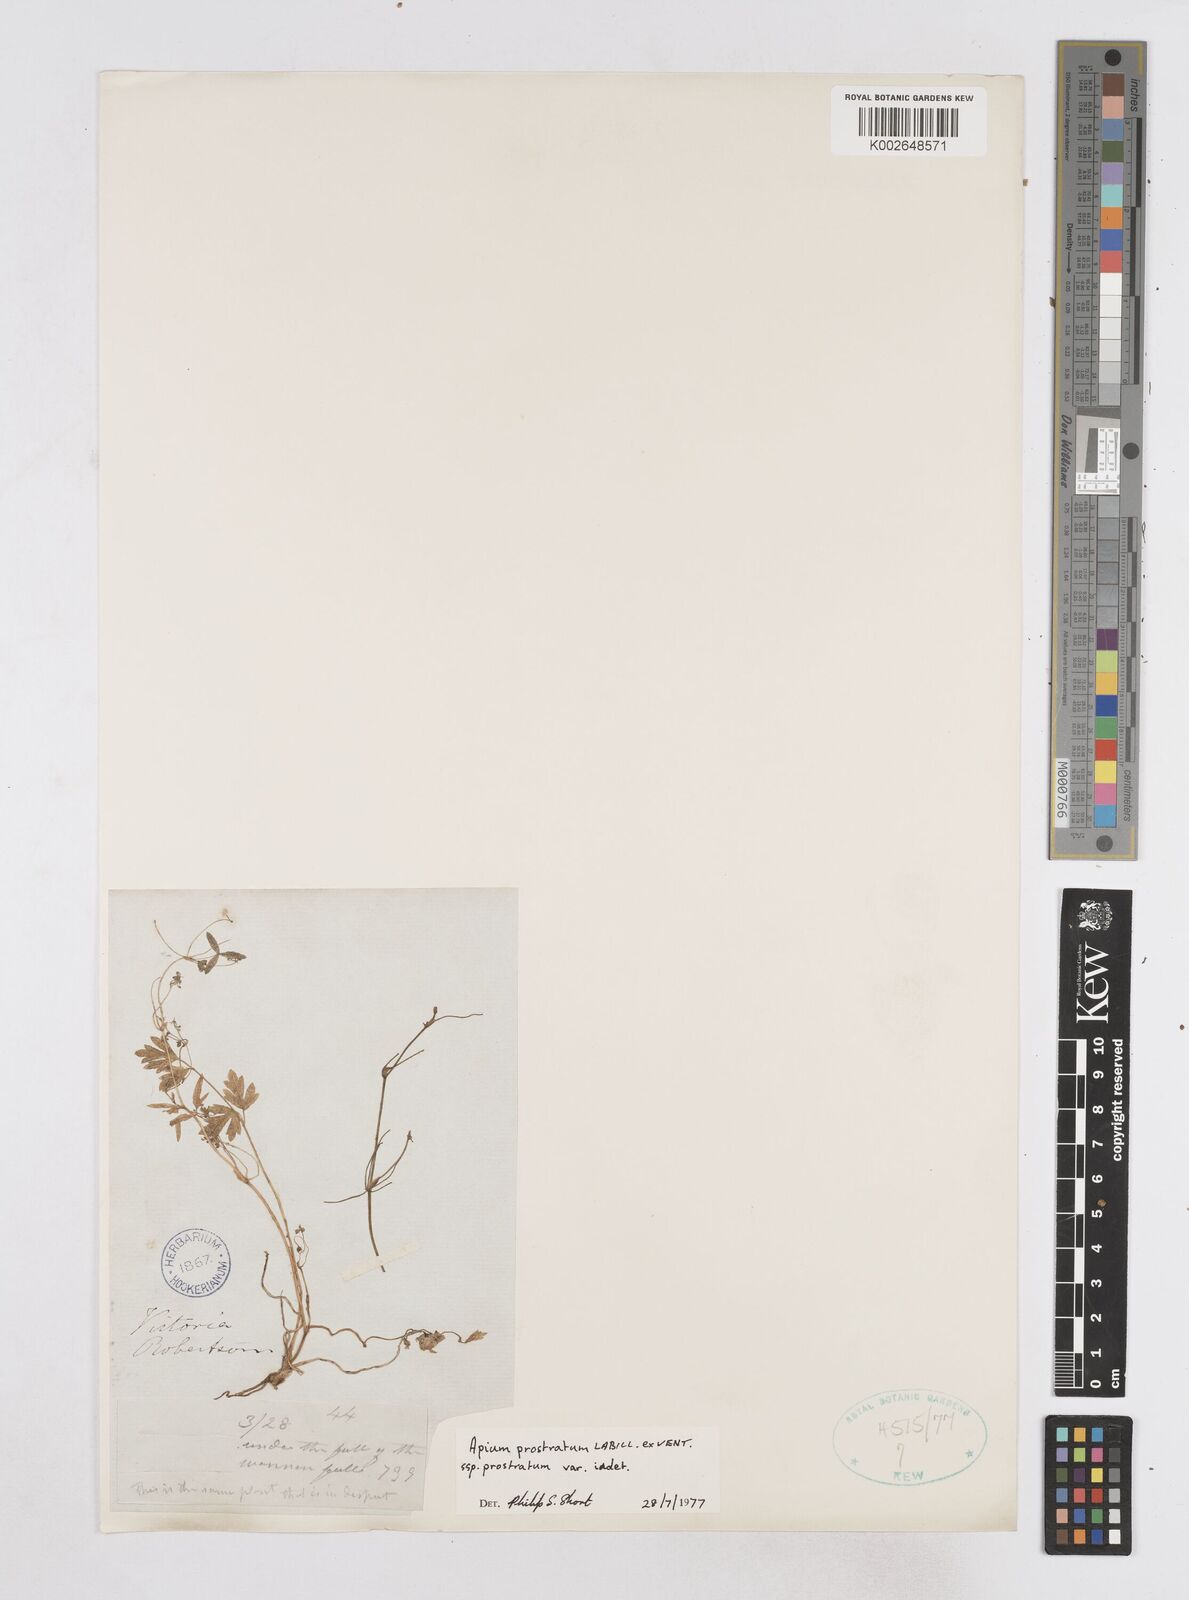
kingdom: Plantae
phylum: Tracheophyta
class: Magnoliopsida
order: Apiales
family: Apiaceae
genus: Apium
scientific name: Apium prostratum
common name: Prostrate marshwort
